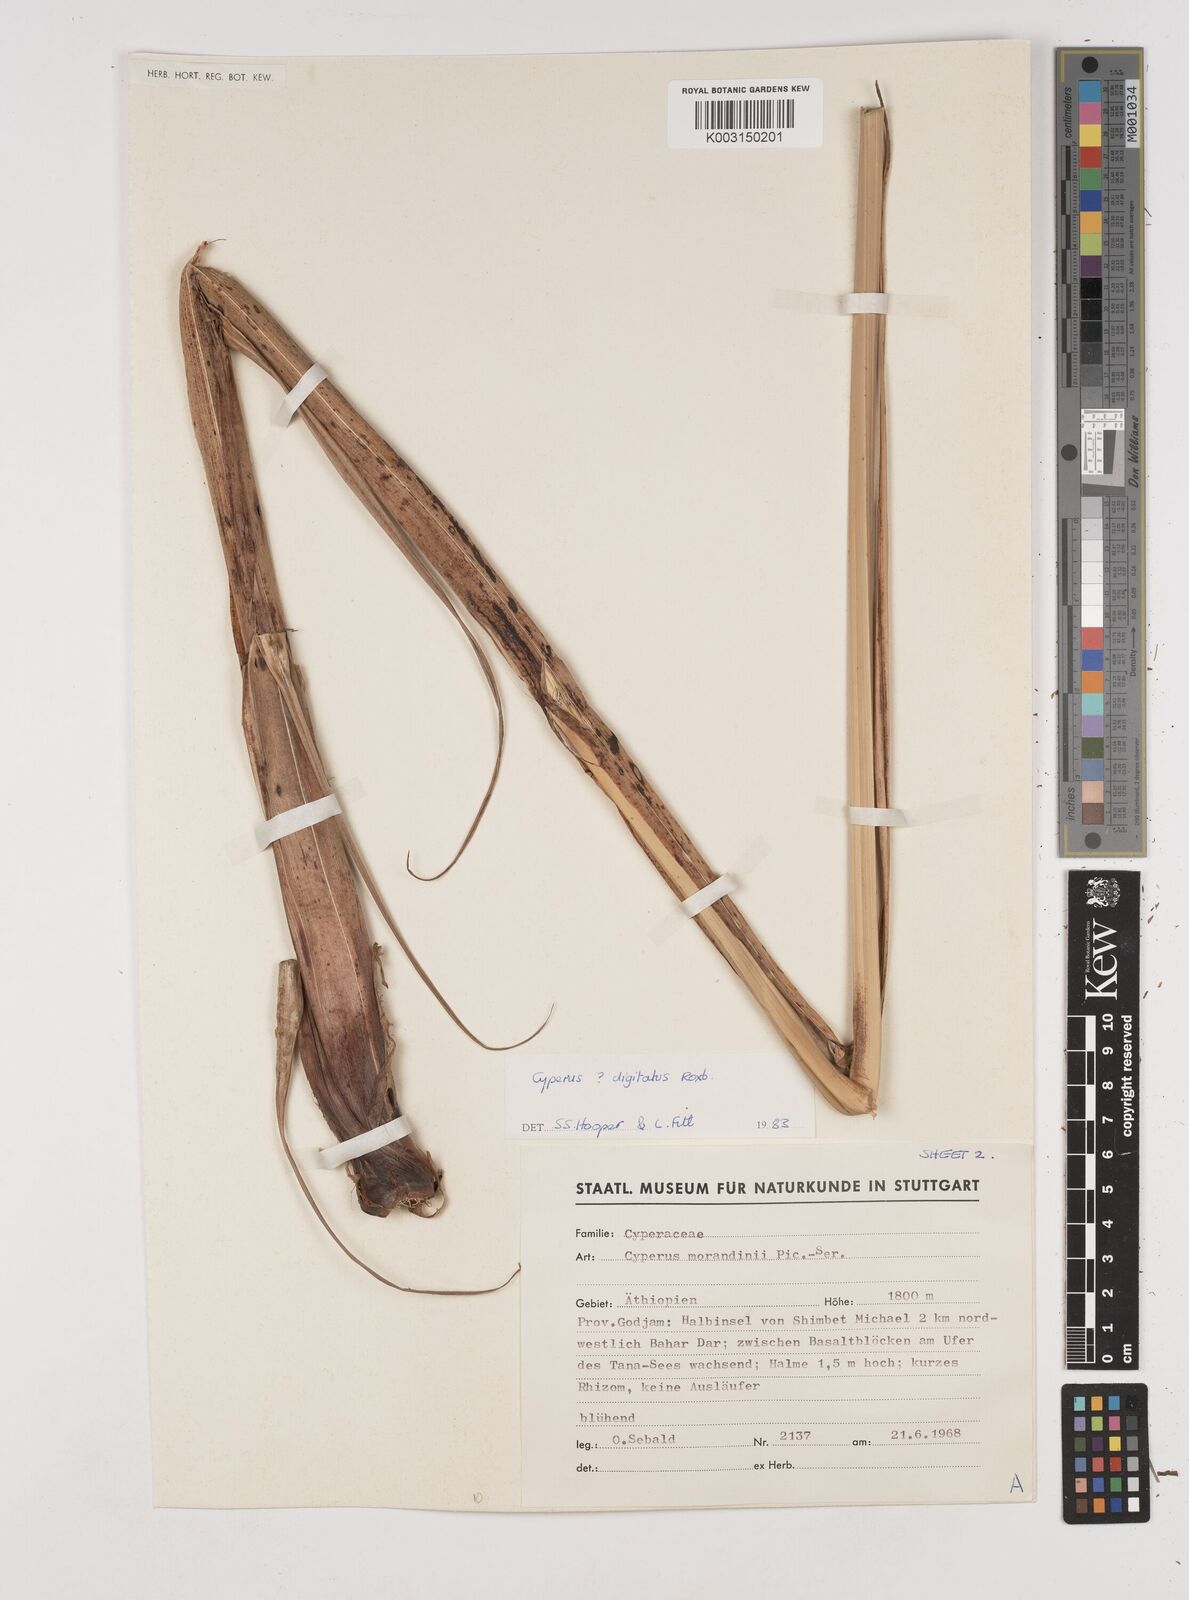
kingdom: Plantae
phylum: Tracheophyta
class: Liliopsida
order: Poales
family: Cyperaceae
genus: Cyperus
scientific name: Cyperus imbricatus
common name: Shingle flatsedge
